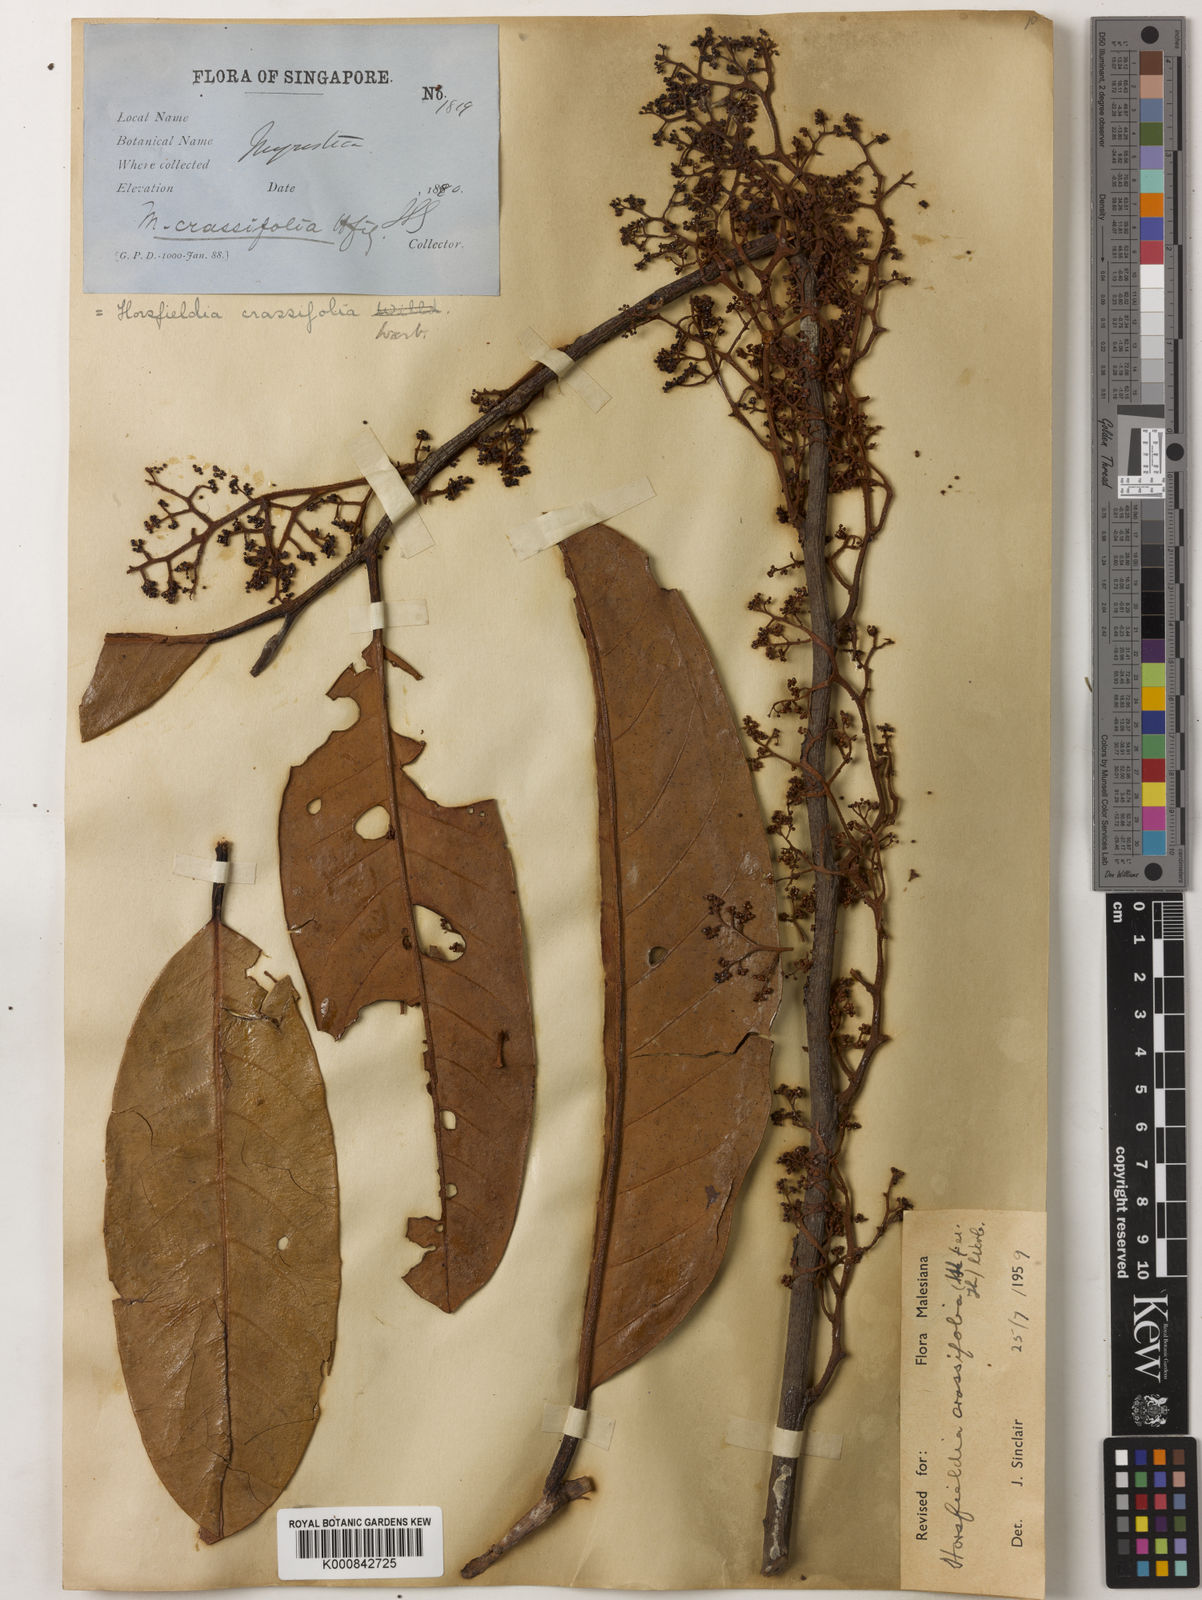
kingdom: Plantae
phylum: Tracheophyta
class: Magnoliopsida
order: Magnoliales
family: Myristicaceae
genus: Horsfieldia
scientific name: Horsfieldia crassifolia
